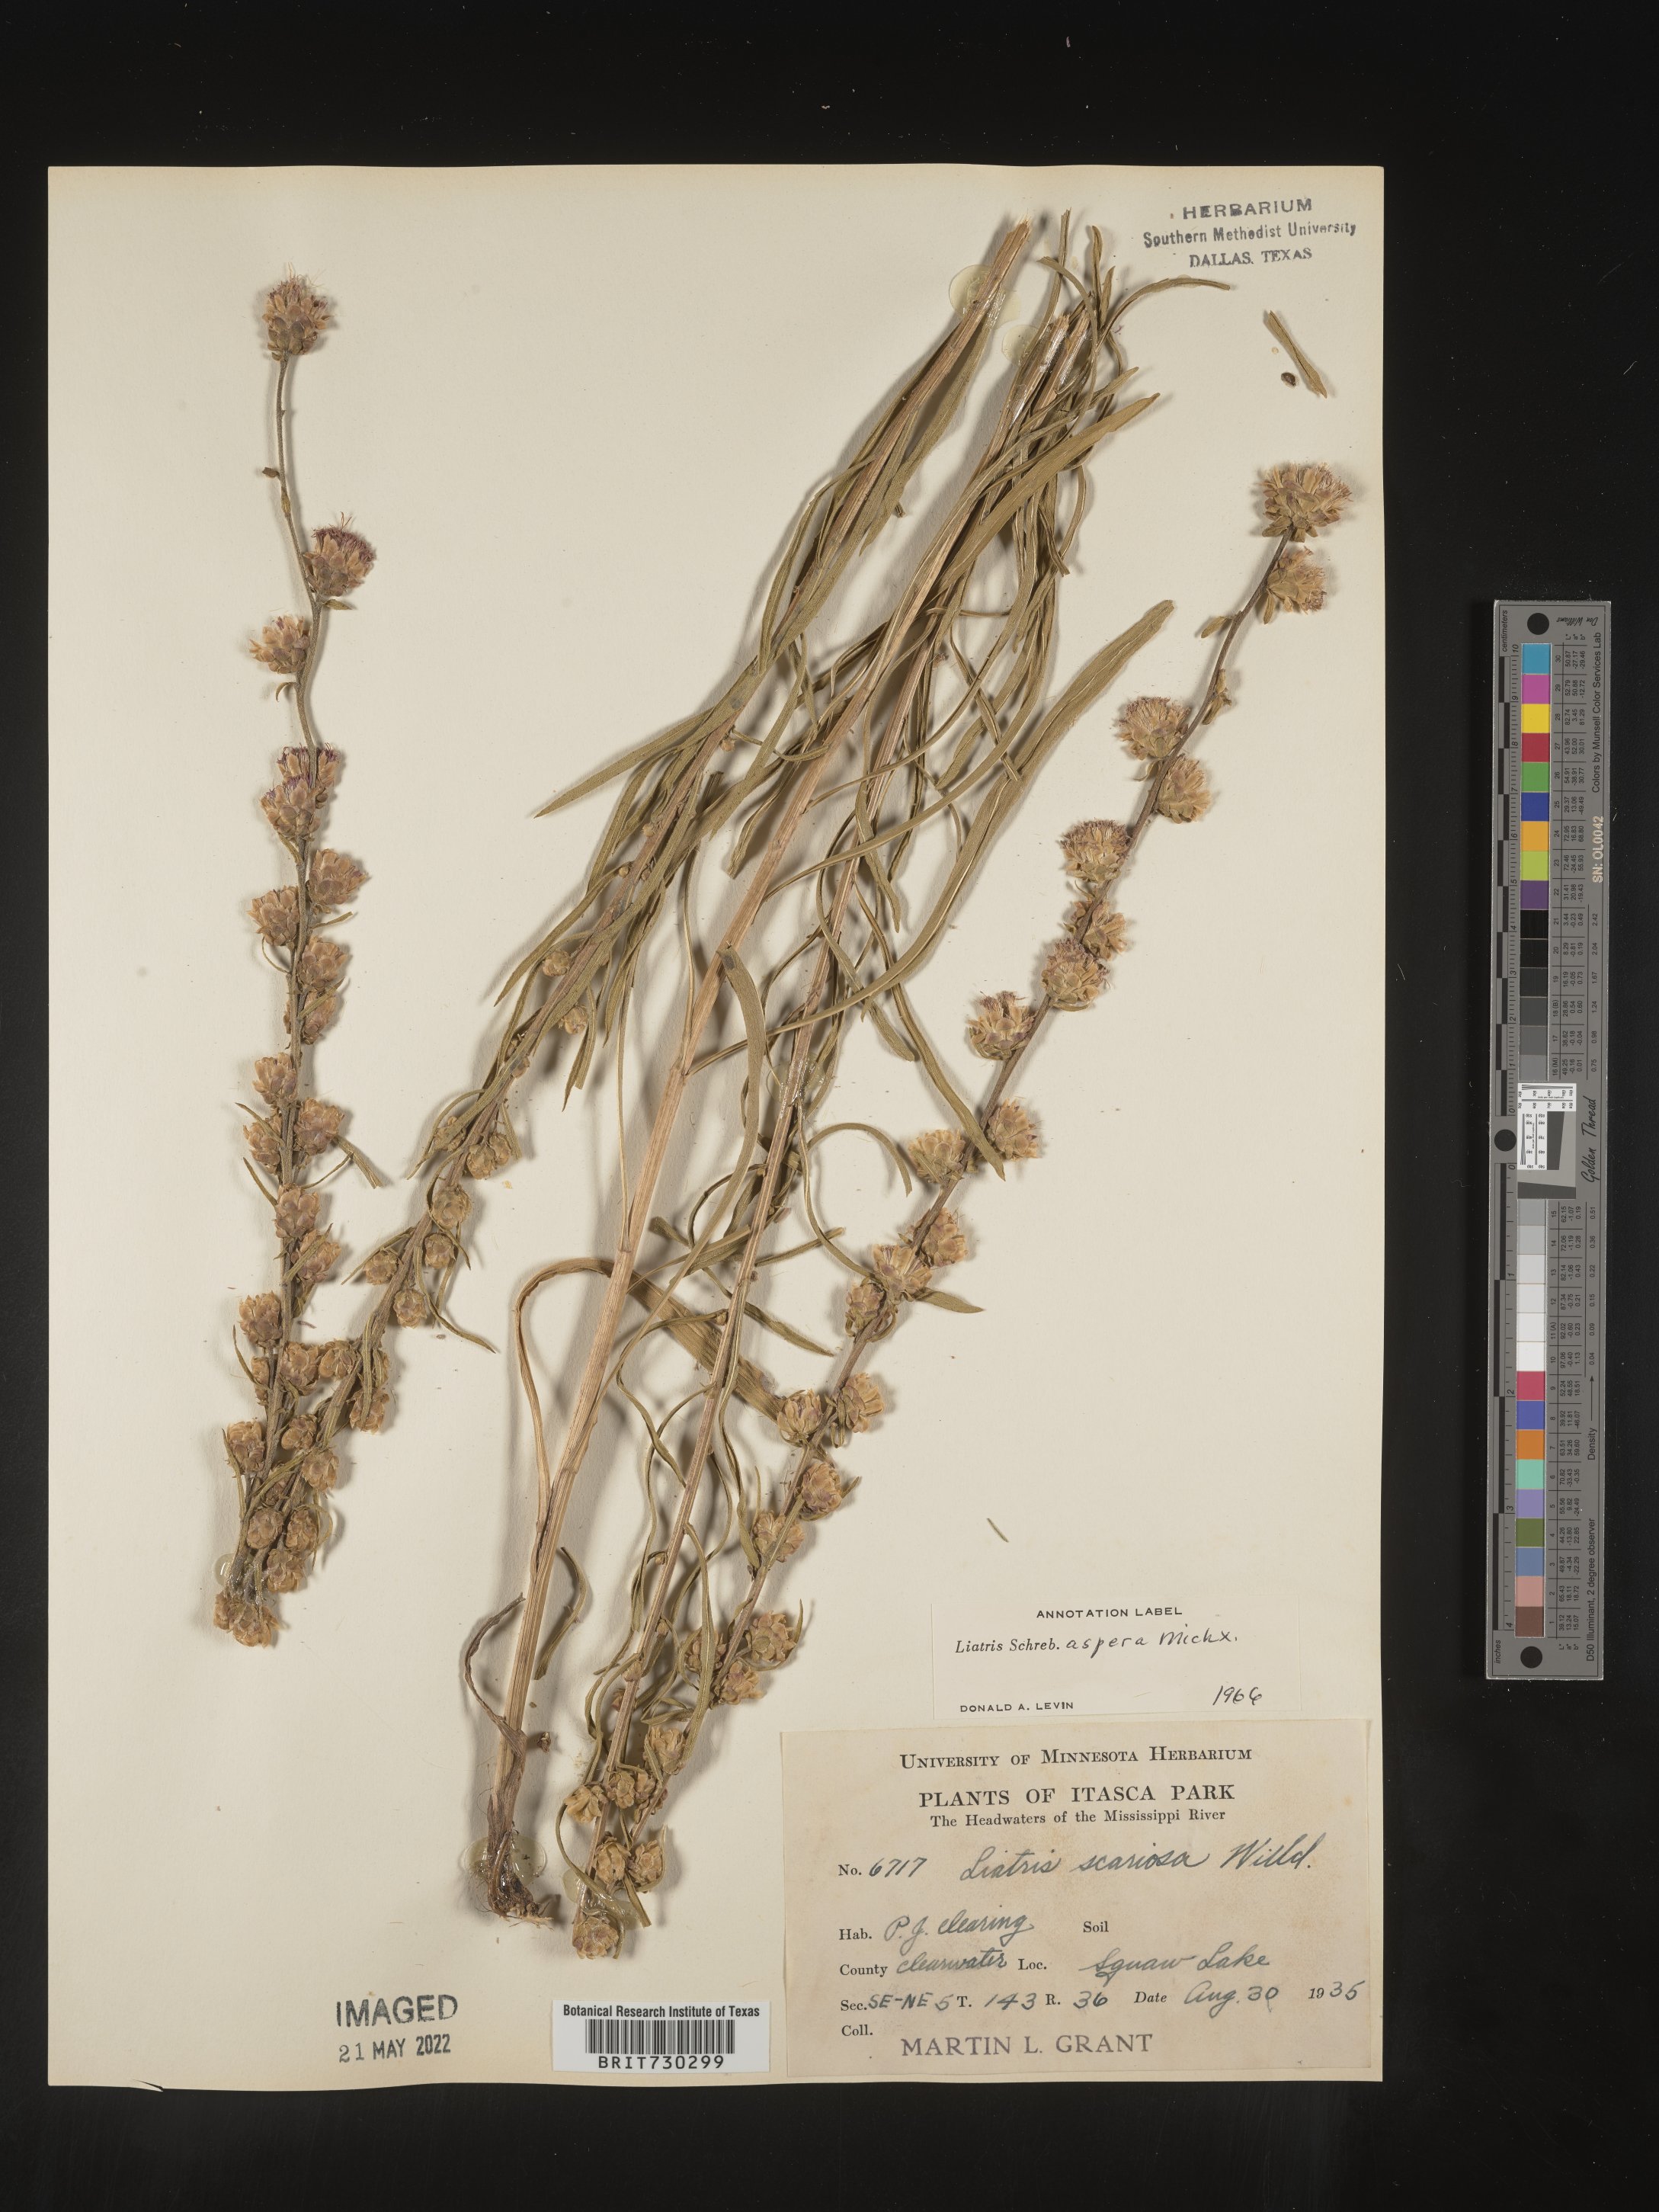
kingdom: Plantae
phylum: Tracheophyta
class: Magnoliopsida
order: Asterales
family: Asteraceae
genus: Liatris
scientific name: Liatris aspera
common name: Lacerate blazing-star
